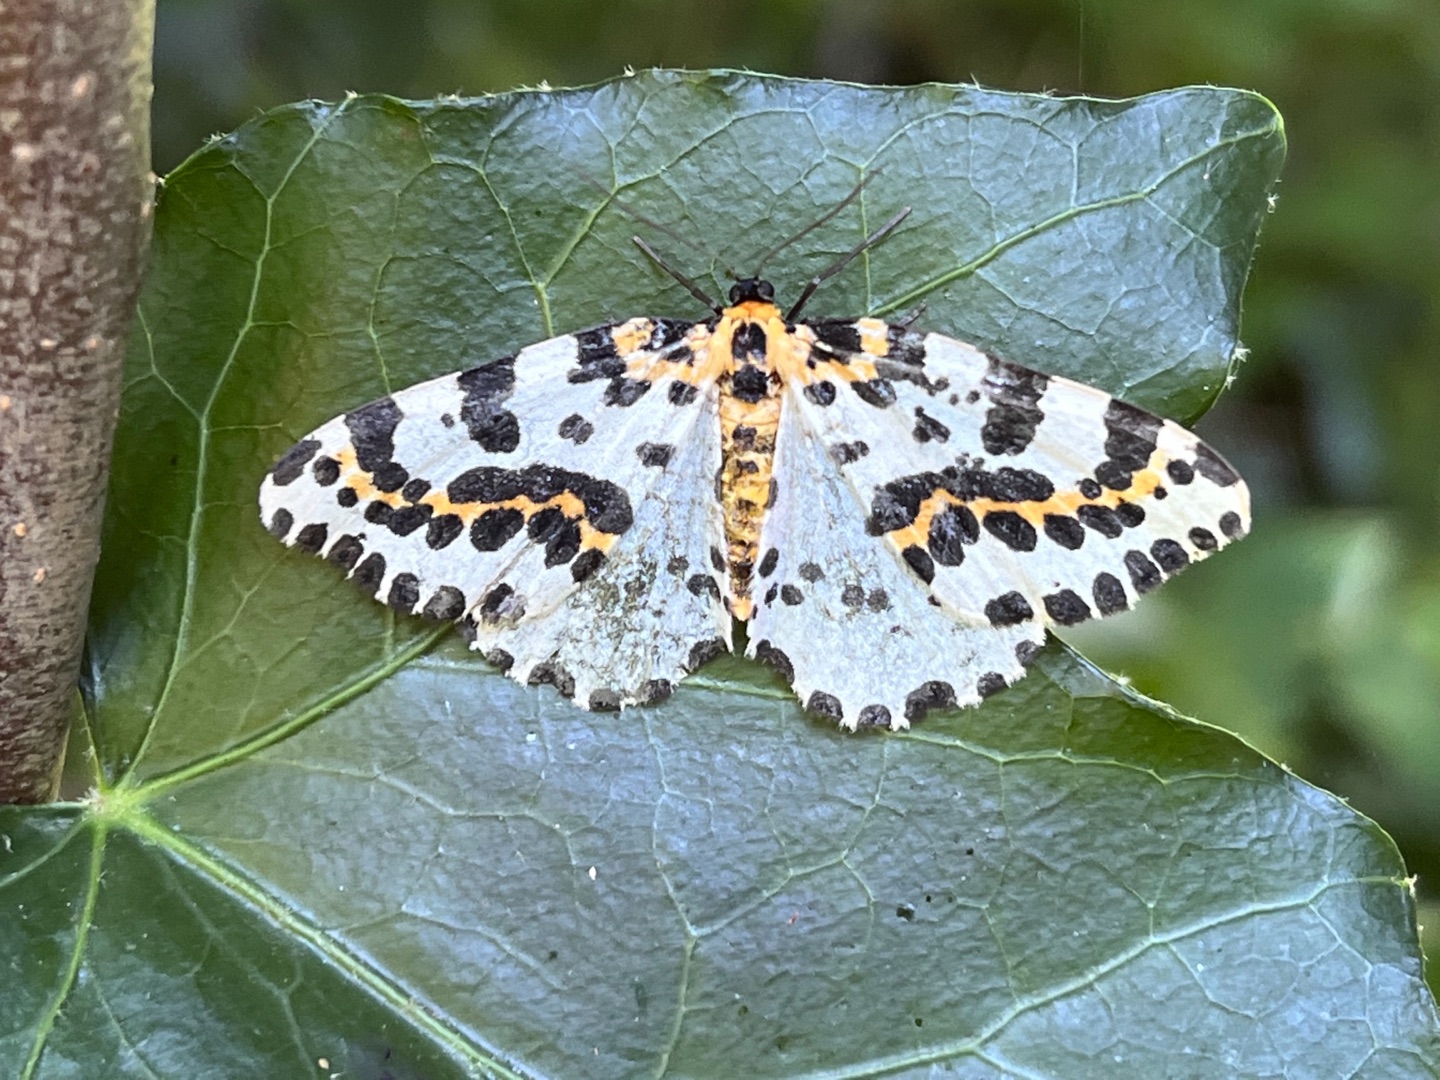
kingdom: Animalia
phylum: Arthropoda
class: Insecta
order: Lepidoptera
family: Geometridae
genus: Abraxas
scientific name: Abraxas grossulariata
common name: Harlekin
